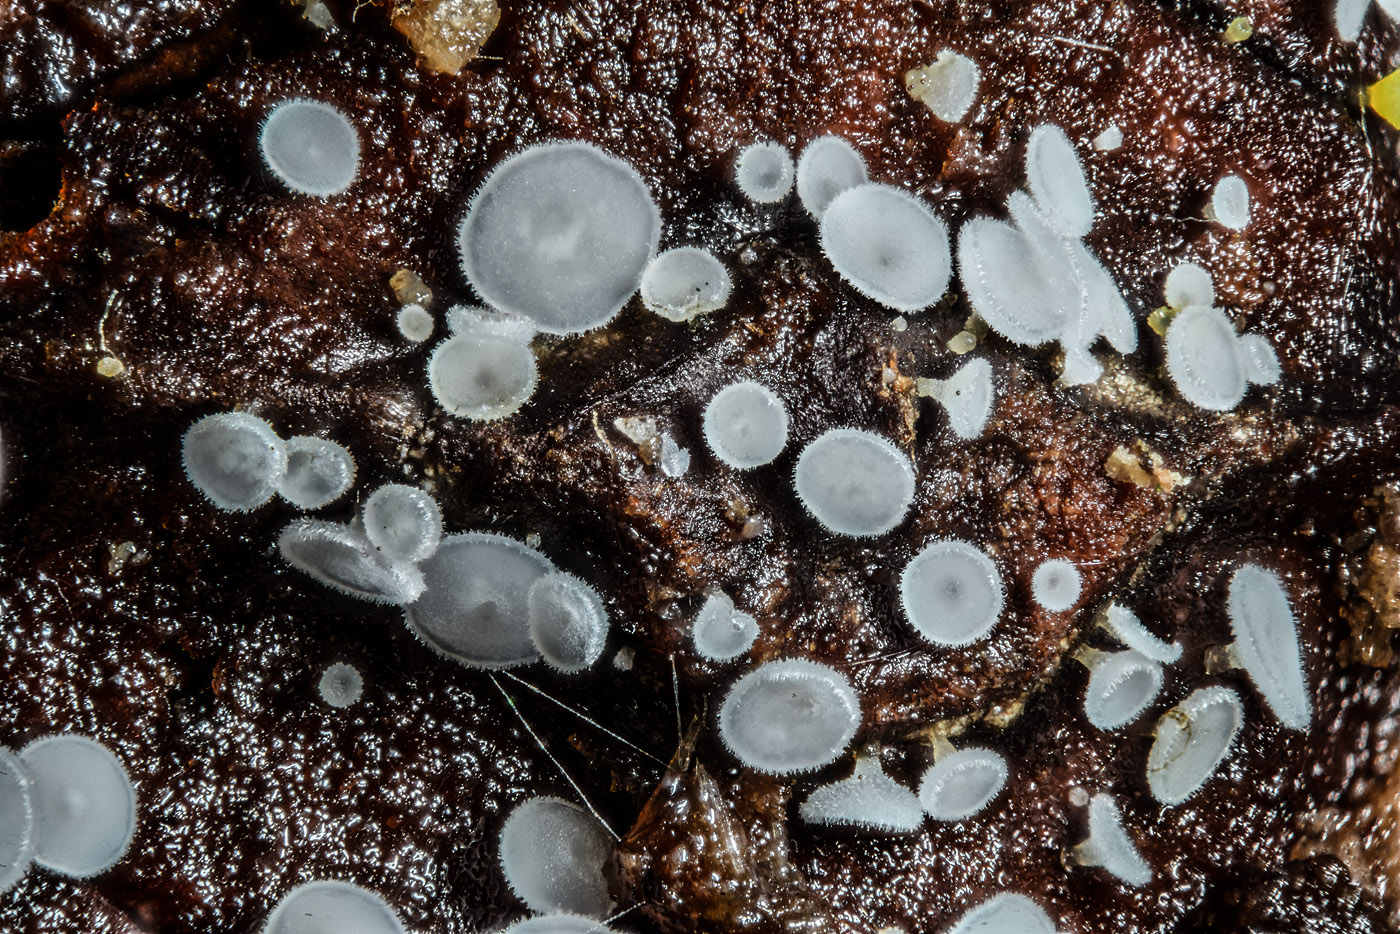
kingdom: Fungi
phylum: Ascomycota
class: Leotiomycetes
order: Helotiales
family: Hyaloscyphaceae
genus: Psilocistella
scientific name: Psilocistella conincola
